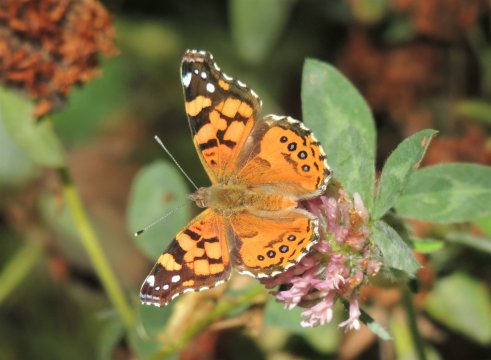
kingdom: Animalia
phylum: Arthropoda
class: Insecta
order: Lepidoptera
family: Nymphalidae
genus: Vanessa
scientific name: Vanessa annabella
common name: West Coast Lady
